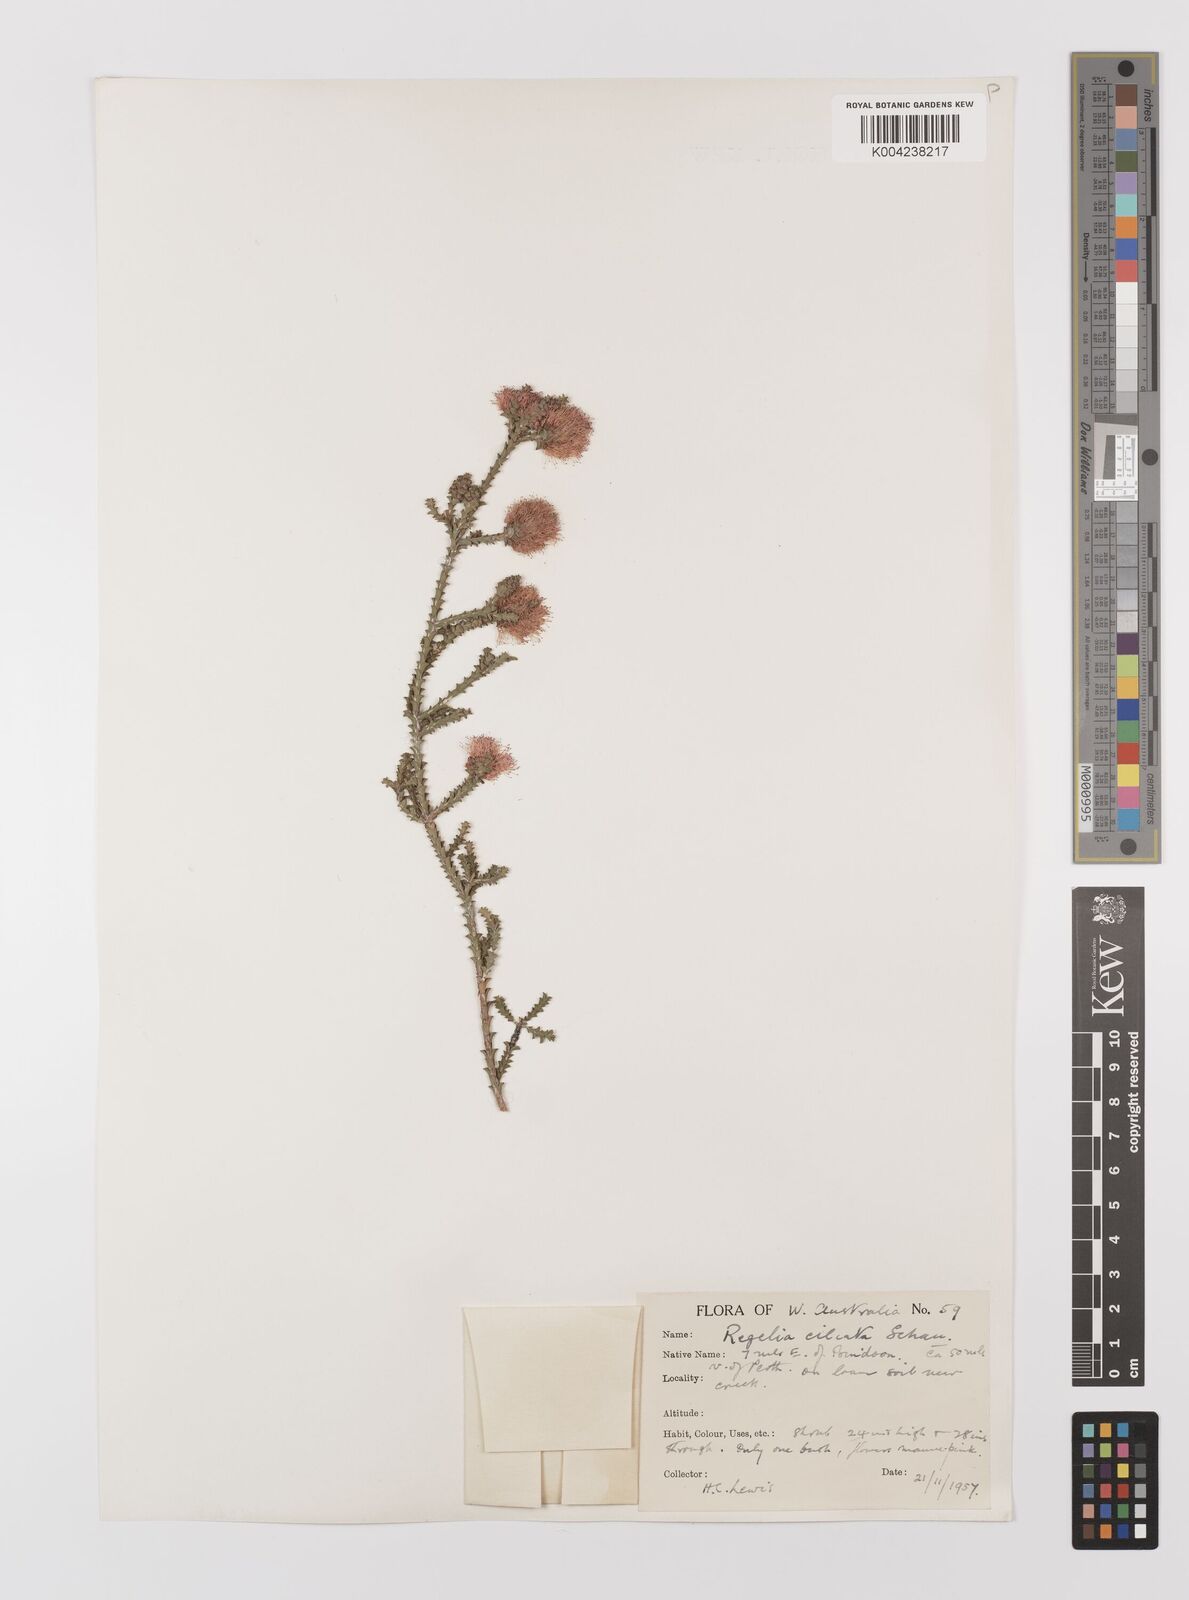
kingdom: Plantae
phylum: Tracheophyta
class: Magnoliopsida
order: Myrtales
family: Myrtaceae
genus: Melaleuca
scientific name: Melaleuca crossota
